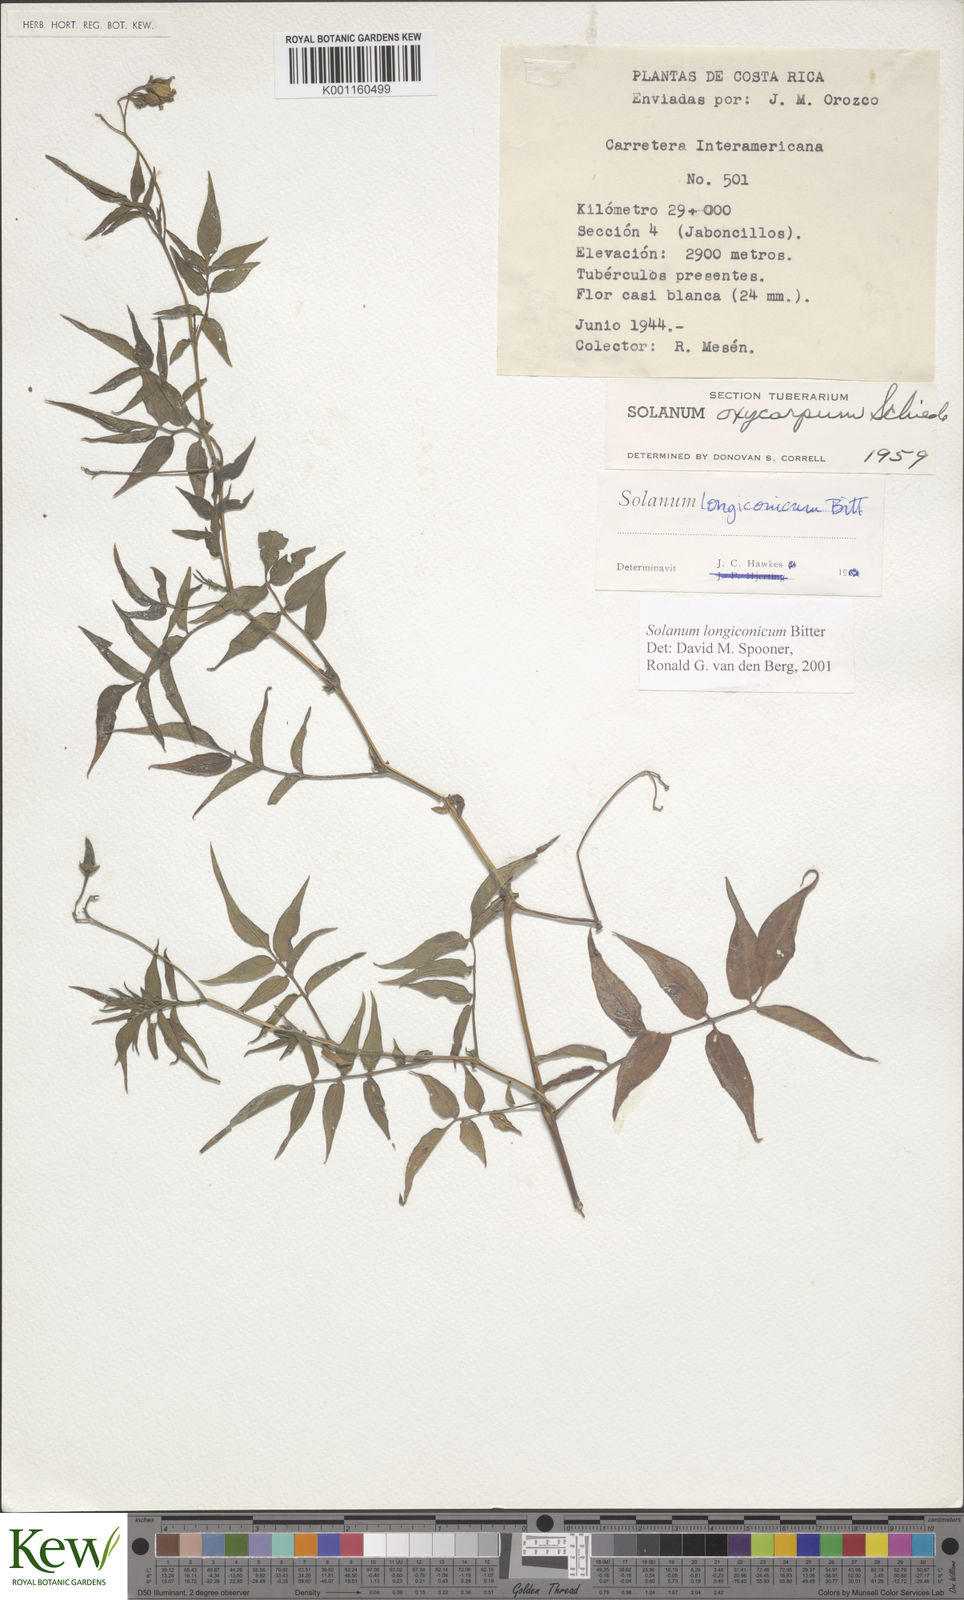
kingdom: Plantae
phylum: Tracheophyta
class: Magnoliopsida
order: Solanales
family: Solanaceae
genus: Solanum
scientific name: Solanum longiconicum
